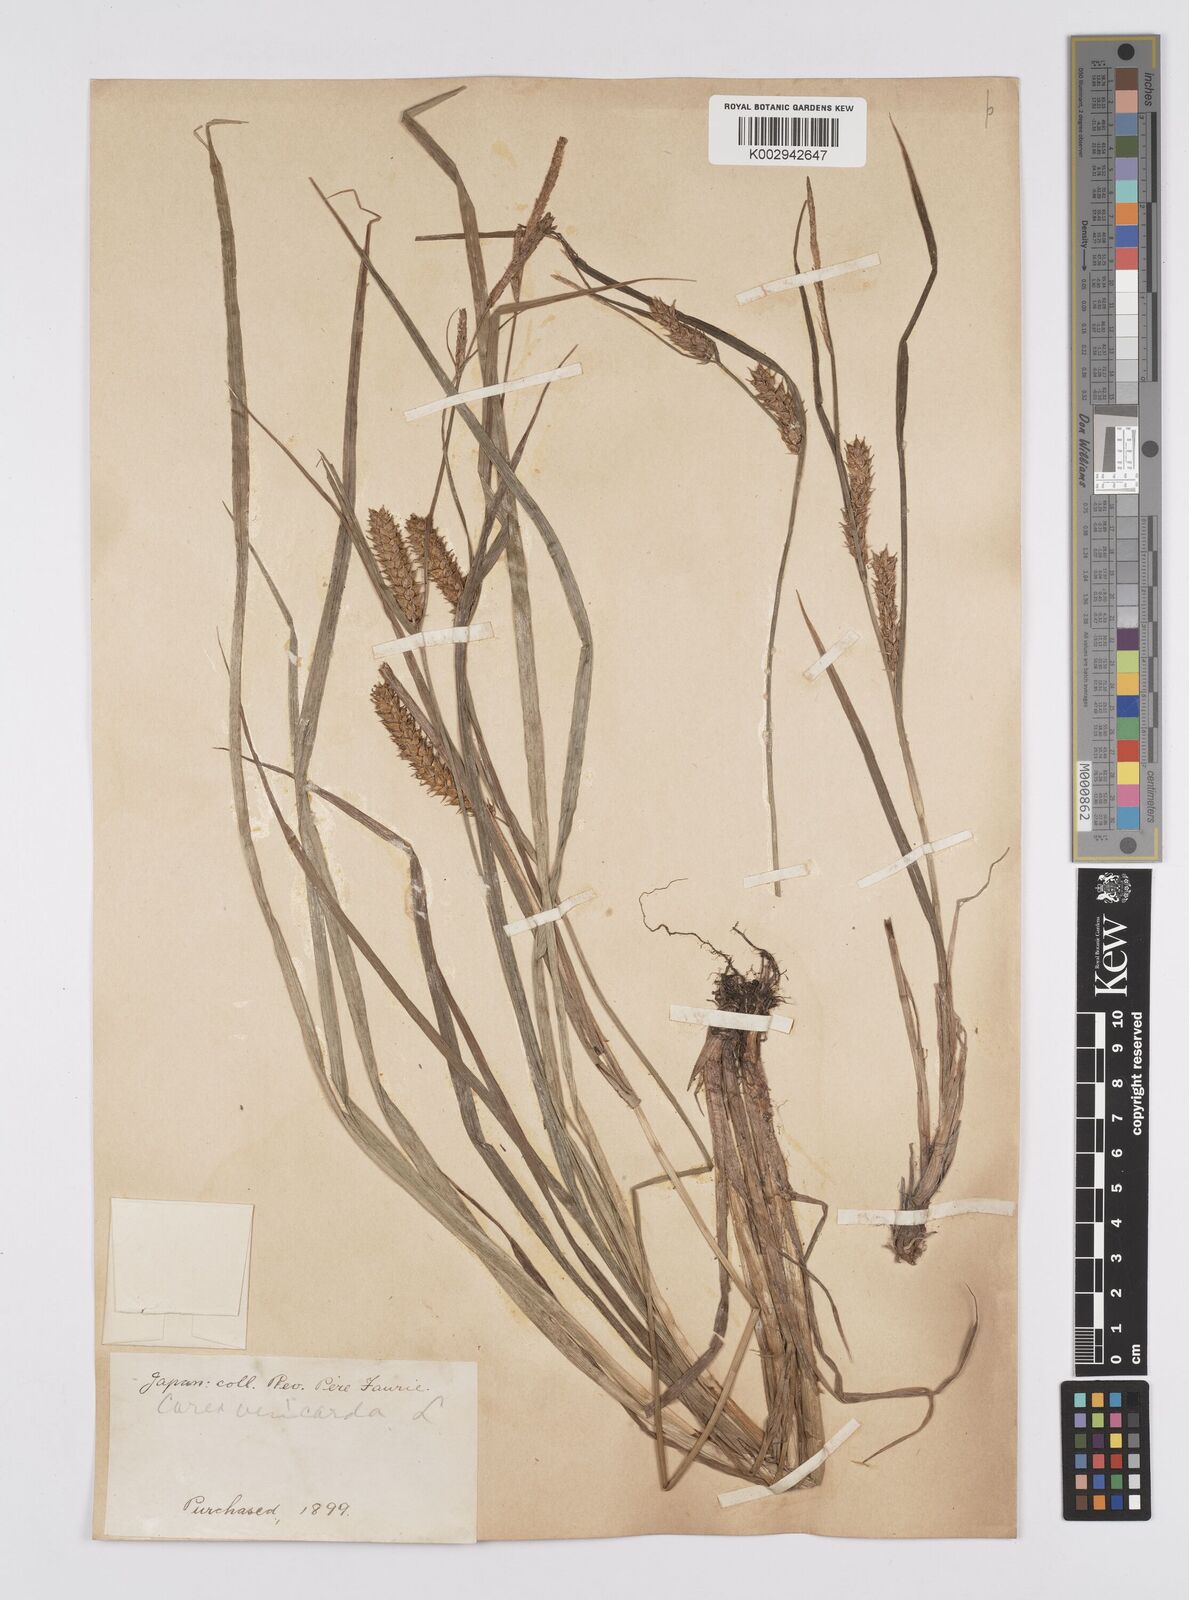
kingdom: Plantae
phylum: Tracheophyta
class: Liliopsida
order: Poales
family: Cyperaceae
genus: Carex
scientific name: Carex vesicaria
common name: Bladder-sedge
